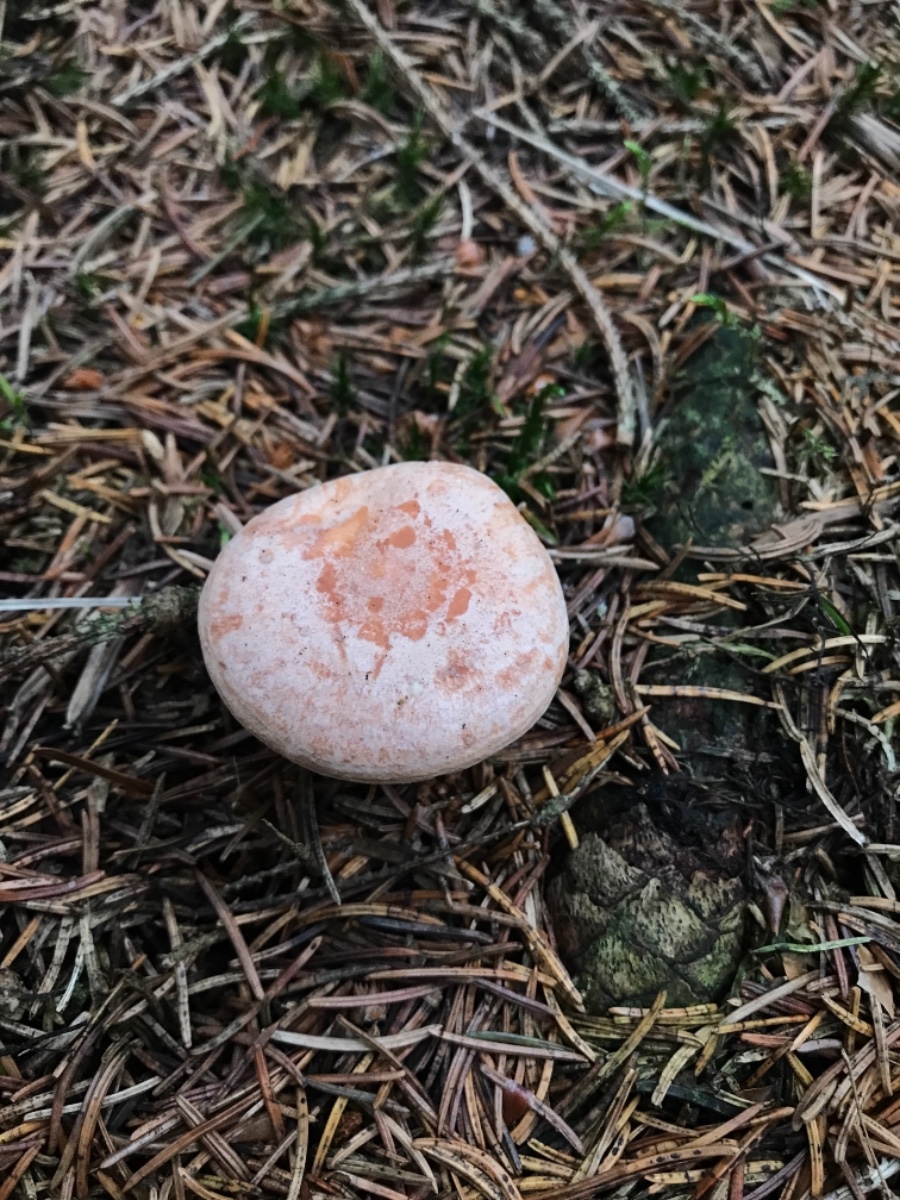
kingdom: Fungi
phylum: Basidiomycota
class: Agaricomycetes
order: Russulales
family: Russulaceae
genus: Lactarius
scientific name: Lactarius chrysorrheus
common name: svovlmælket mælkehat
